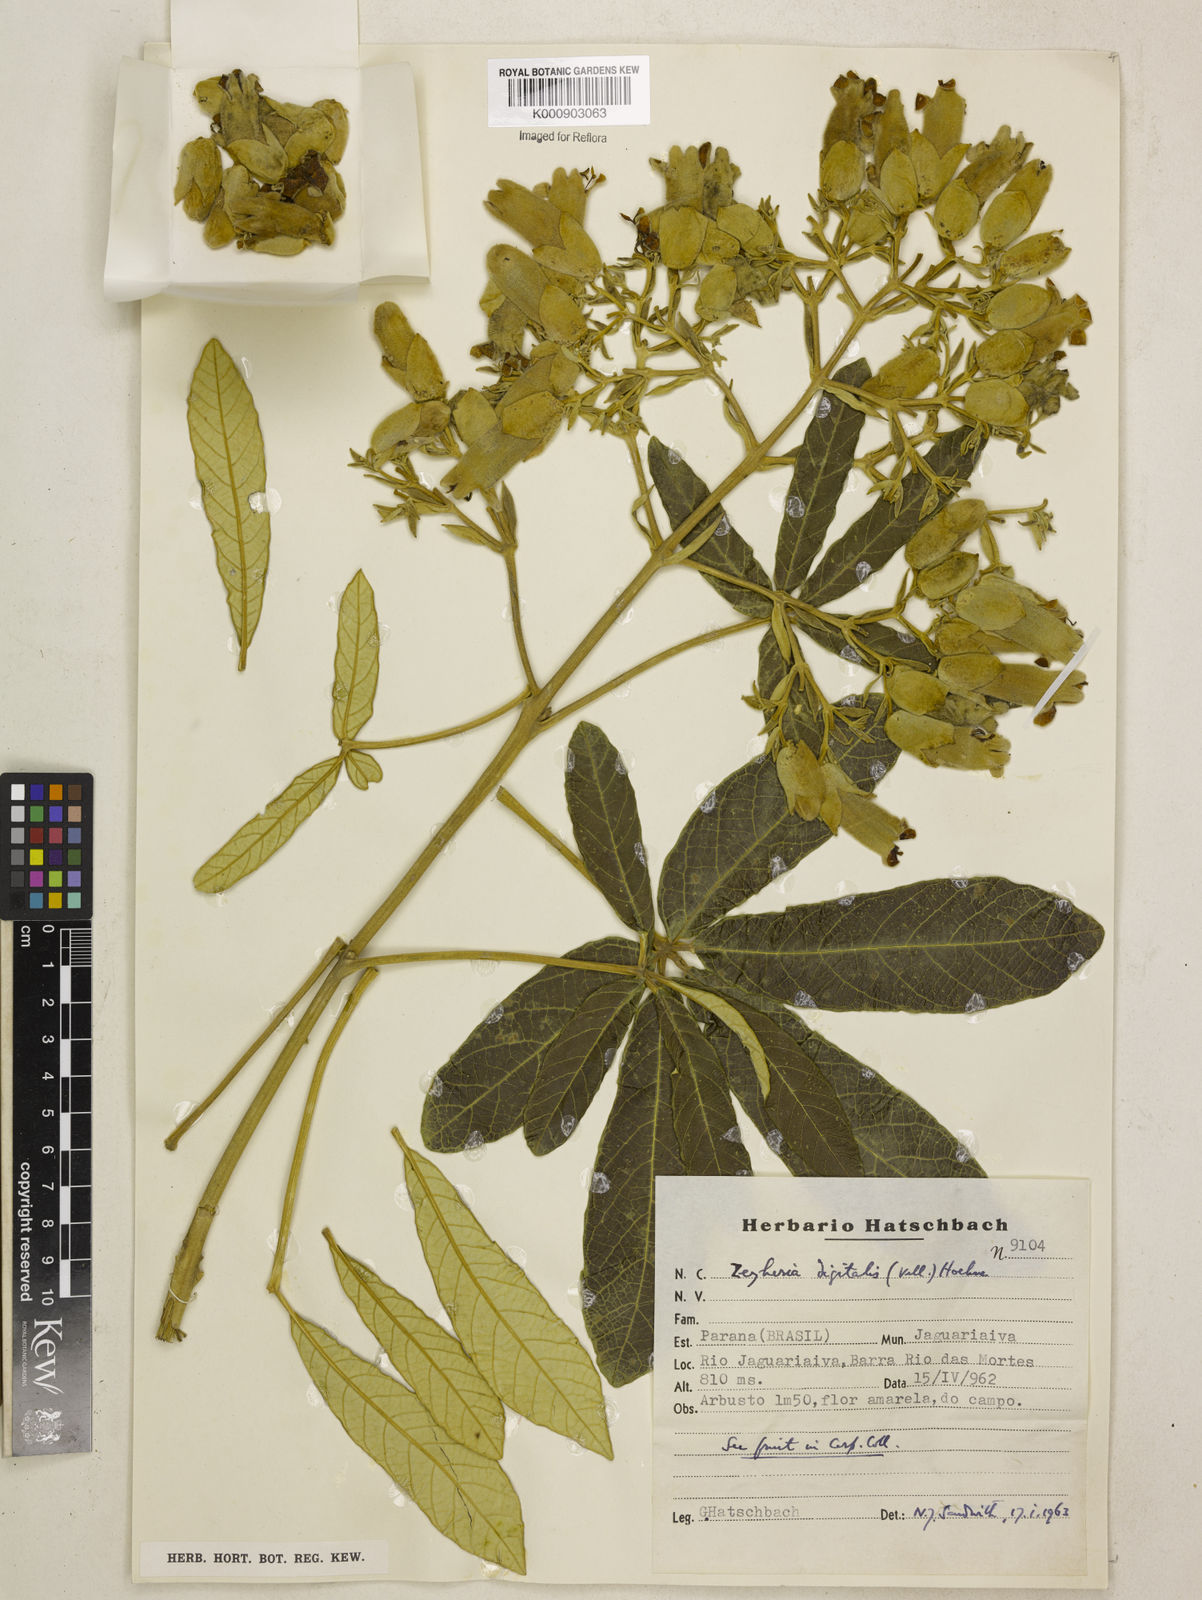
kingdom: Plantae
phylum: Tracheophyta
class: Magnoliopsida
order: Lamiales
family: Bignoniaceae
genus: Zeyheria
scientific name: Zeyheria
